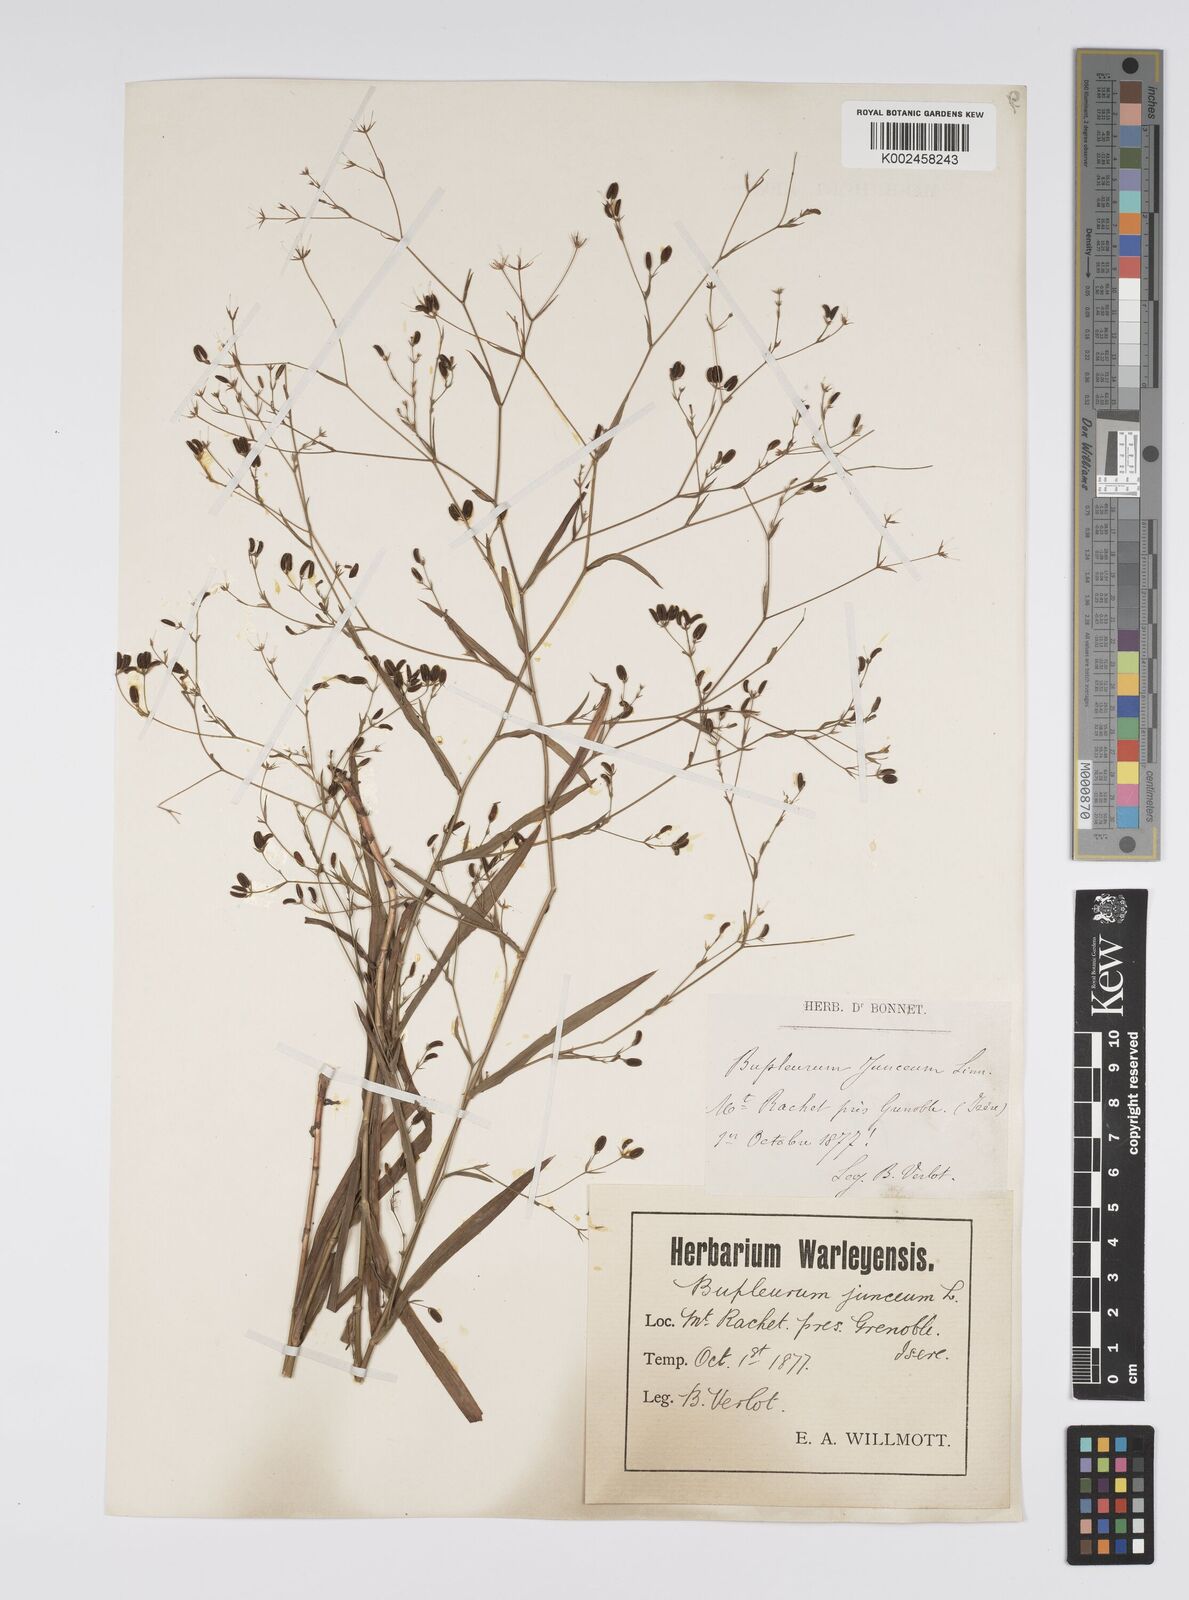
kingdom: Plantae
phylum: Tracheophyta
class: Magnoliopsida
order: Apiales
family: Apiaceae
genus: Bupleurum
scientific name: Bupleurum praealtum
